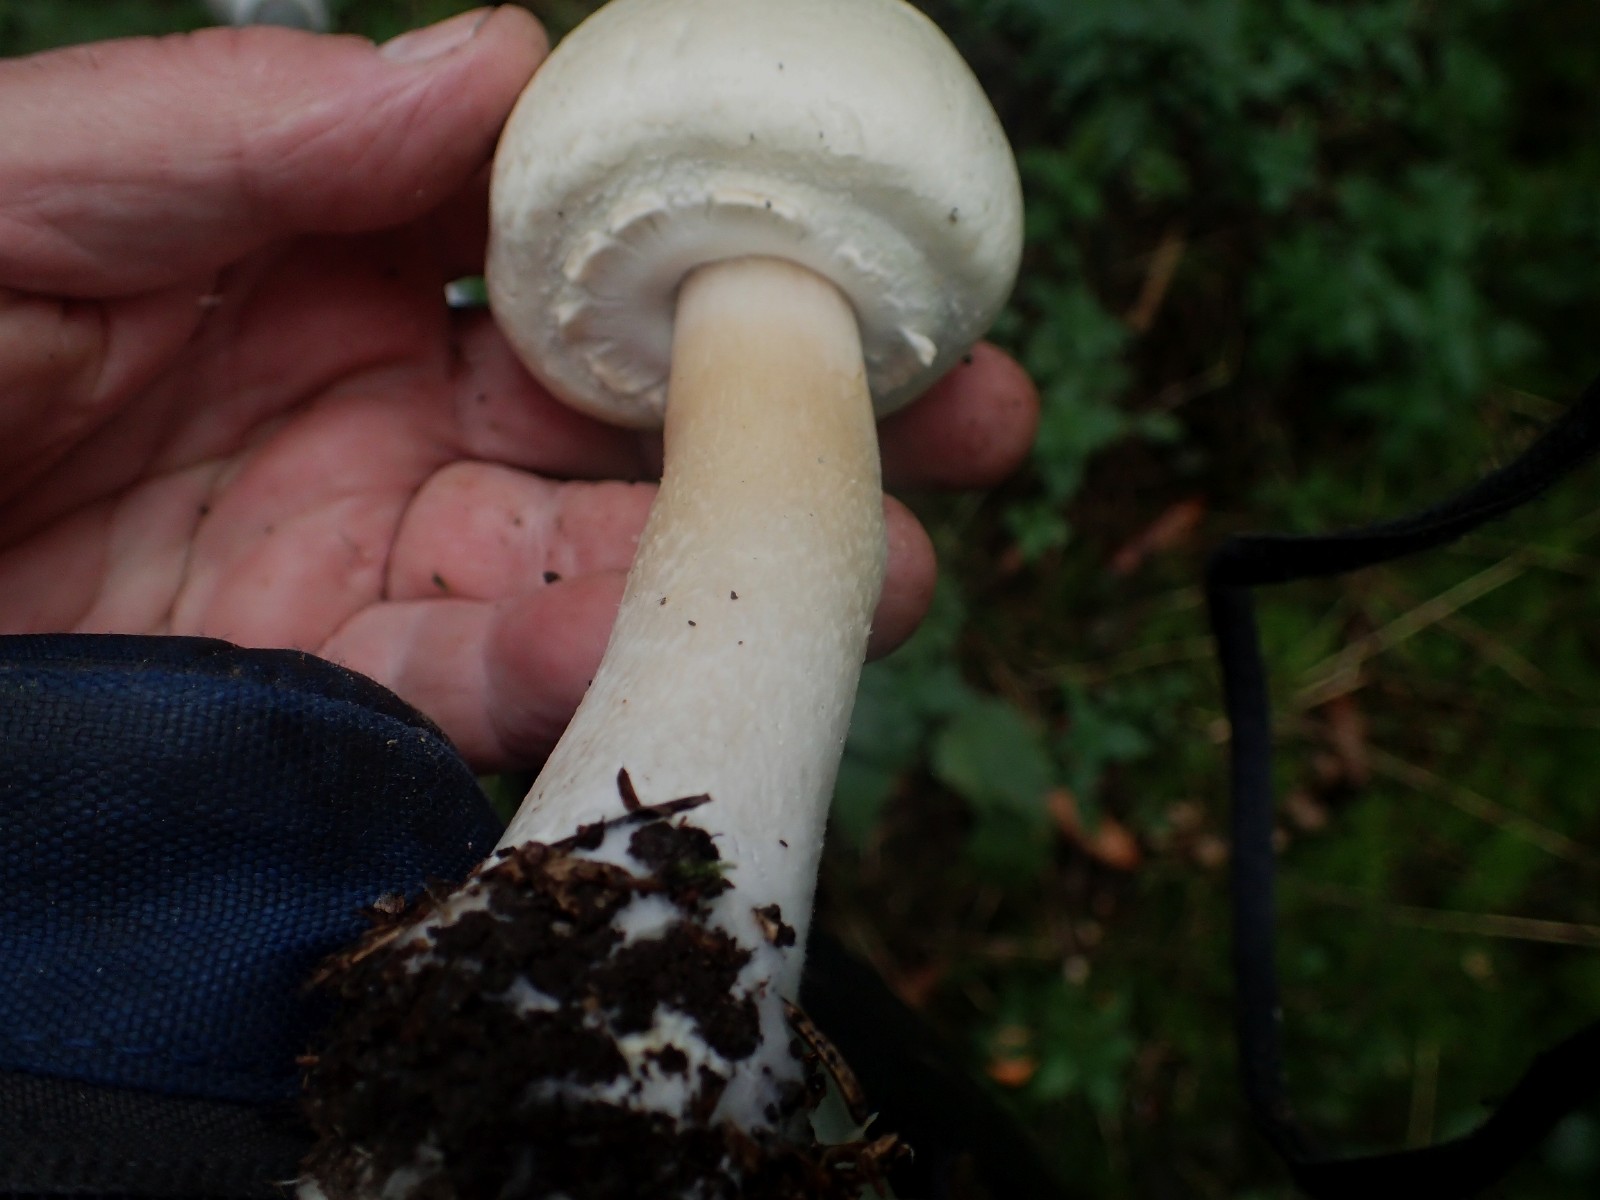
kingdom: Fungi
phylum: Basidiomycota
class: Agaricomycetes
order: Agaricales
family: Agaricaceae
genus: Agaricus
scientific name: Agaricus sylvicola
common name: gulhvid champignon
